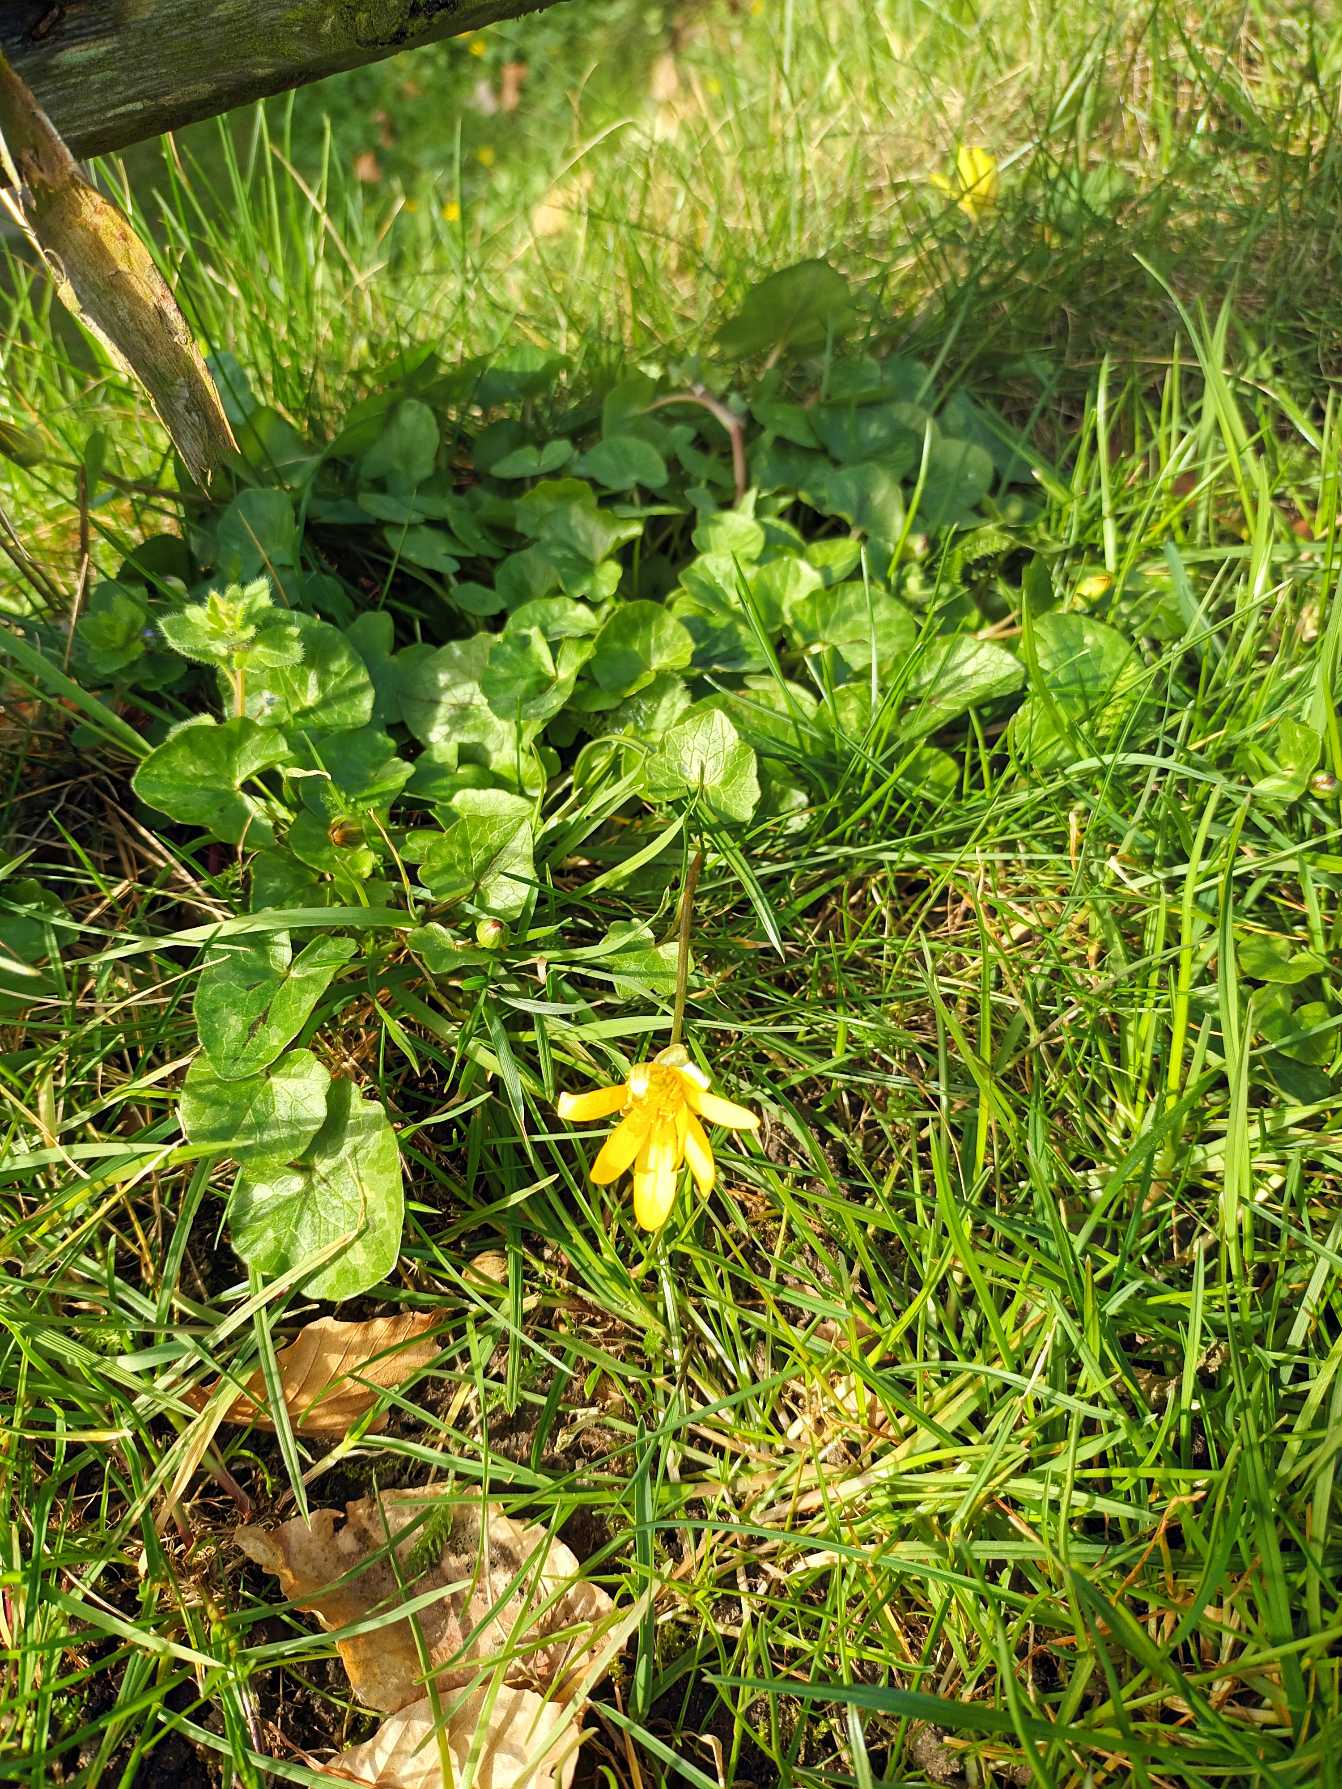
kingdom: Plantae
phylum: Tracheophyta
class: Magnoliopsida
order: Ranunculales
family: Ranunculaceae
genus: Ficaria
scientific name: Ficaria verna
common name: Vorterod
